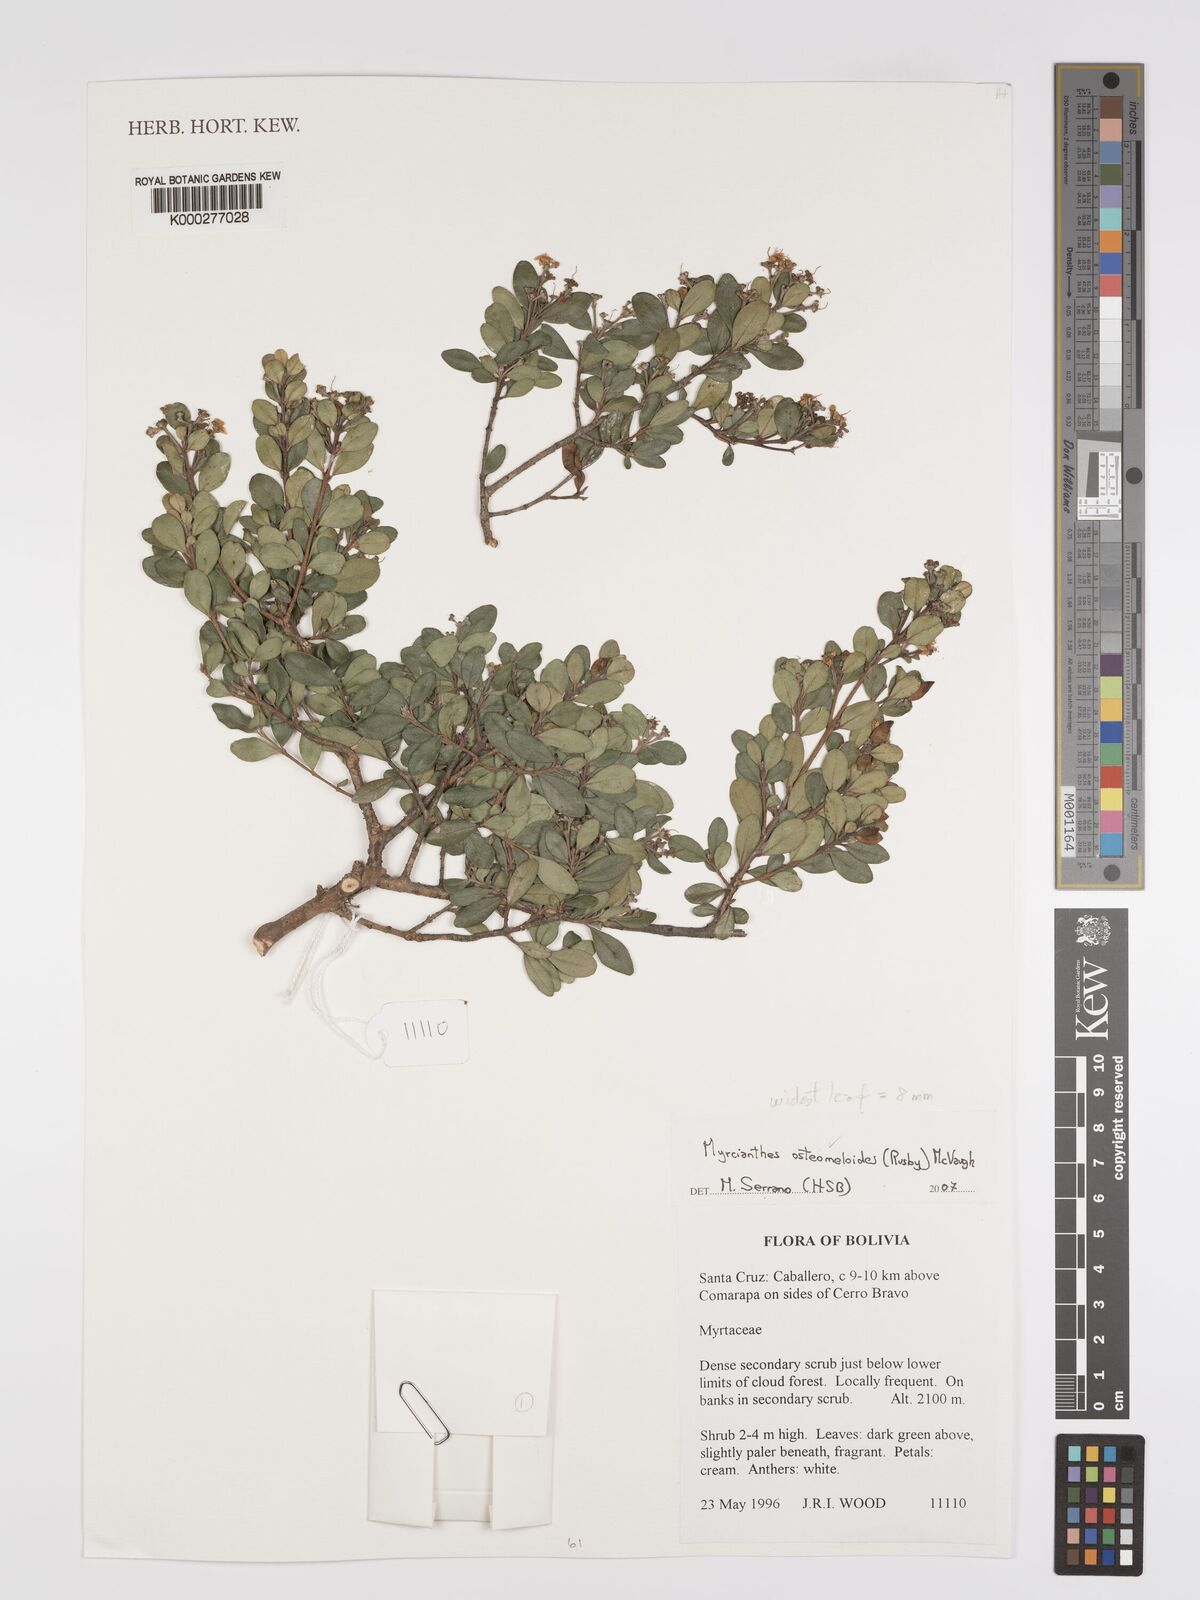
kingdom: Plantae
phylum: Tracheophyta
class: Magnoliopsida
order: Myrtales
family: Myrtaceae
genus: Myrcianthes
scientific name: Myrcianthes osteomeloides
